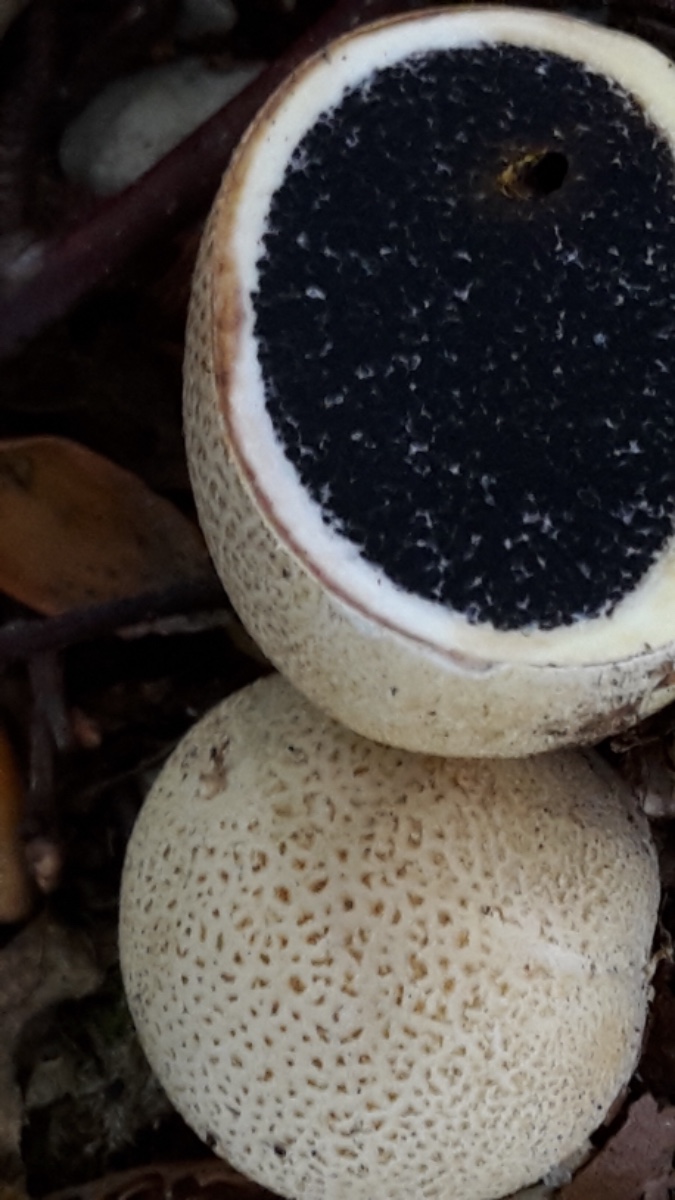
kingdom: Fungi
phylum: Basidiomycota
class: Agaricomycetes
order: Boletales
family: Sclerodermataceae
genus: Scleroderma
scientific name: Scleroderma citrinum
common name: almindelig bruskbold
